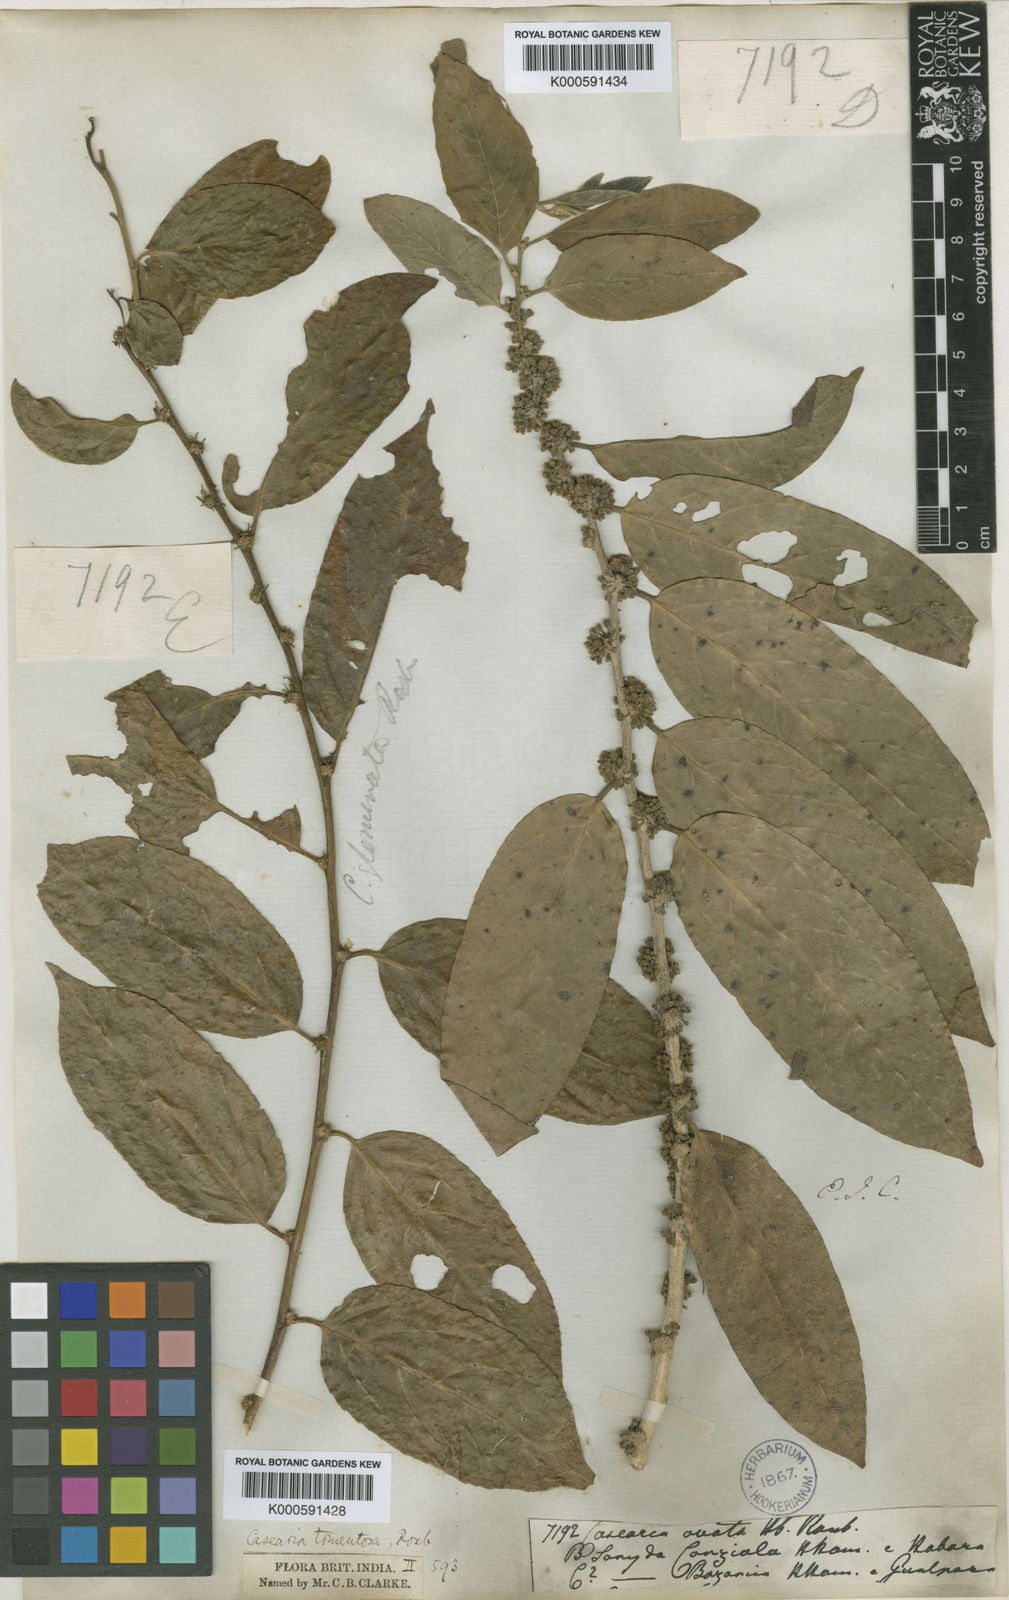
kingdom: Plantae
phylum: Tracheophyta
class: Magnoliopsida
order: Malpighiales
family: Salicaceae
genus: Casearia
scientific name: Casearia tomentosa
